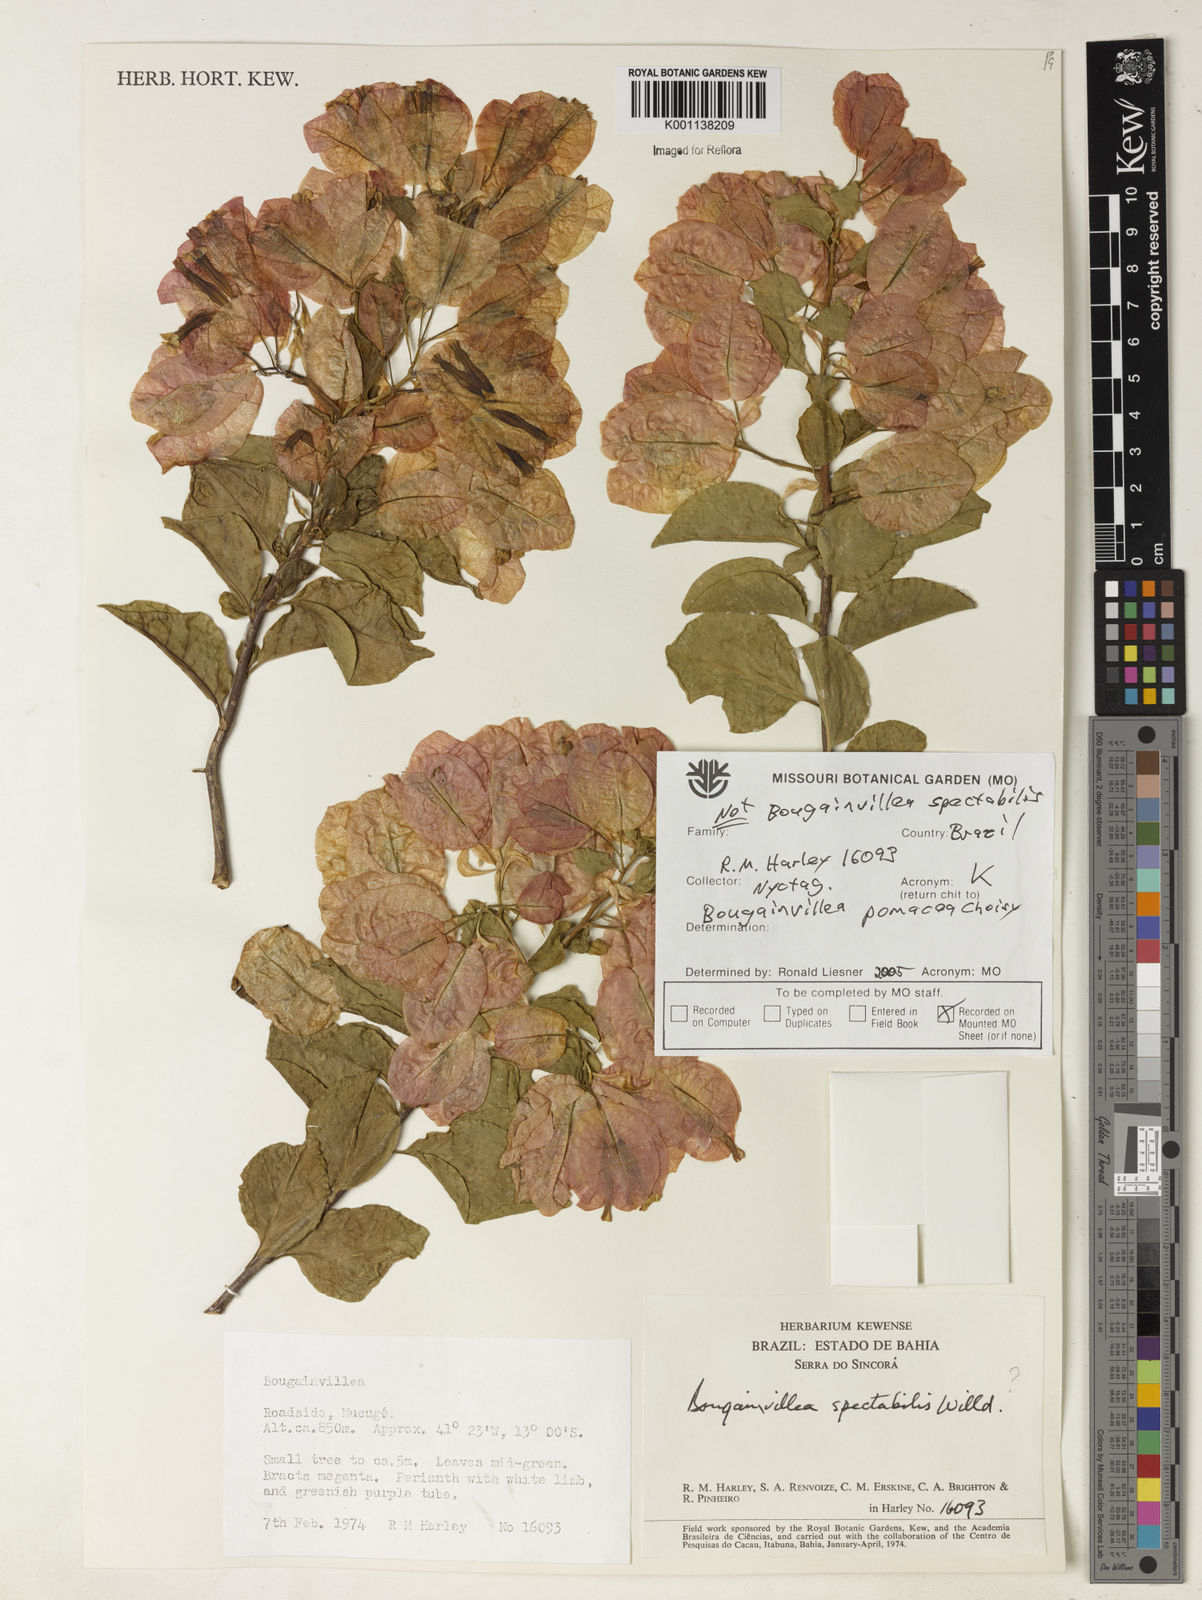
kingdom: Plantae
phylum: Tracheophyta
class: Magnoliopsida
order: Caryophyllales
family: Nyctaginaceae
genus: Bougainvillea
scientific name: Bougainvillea pomacea
